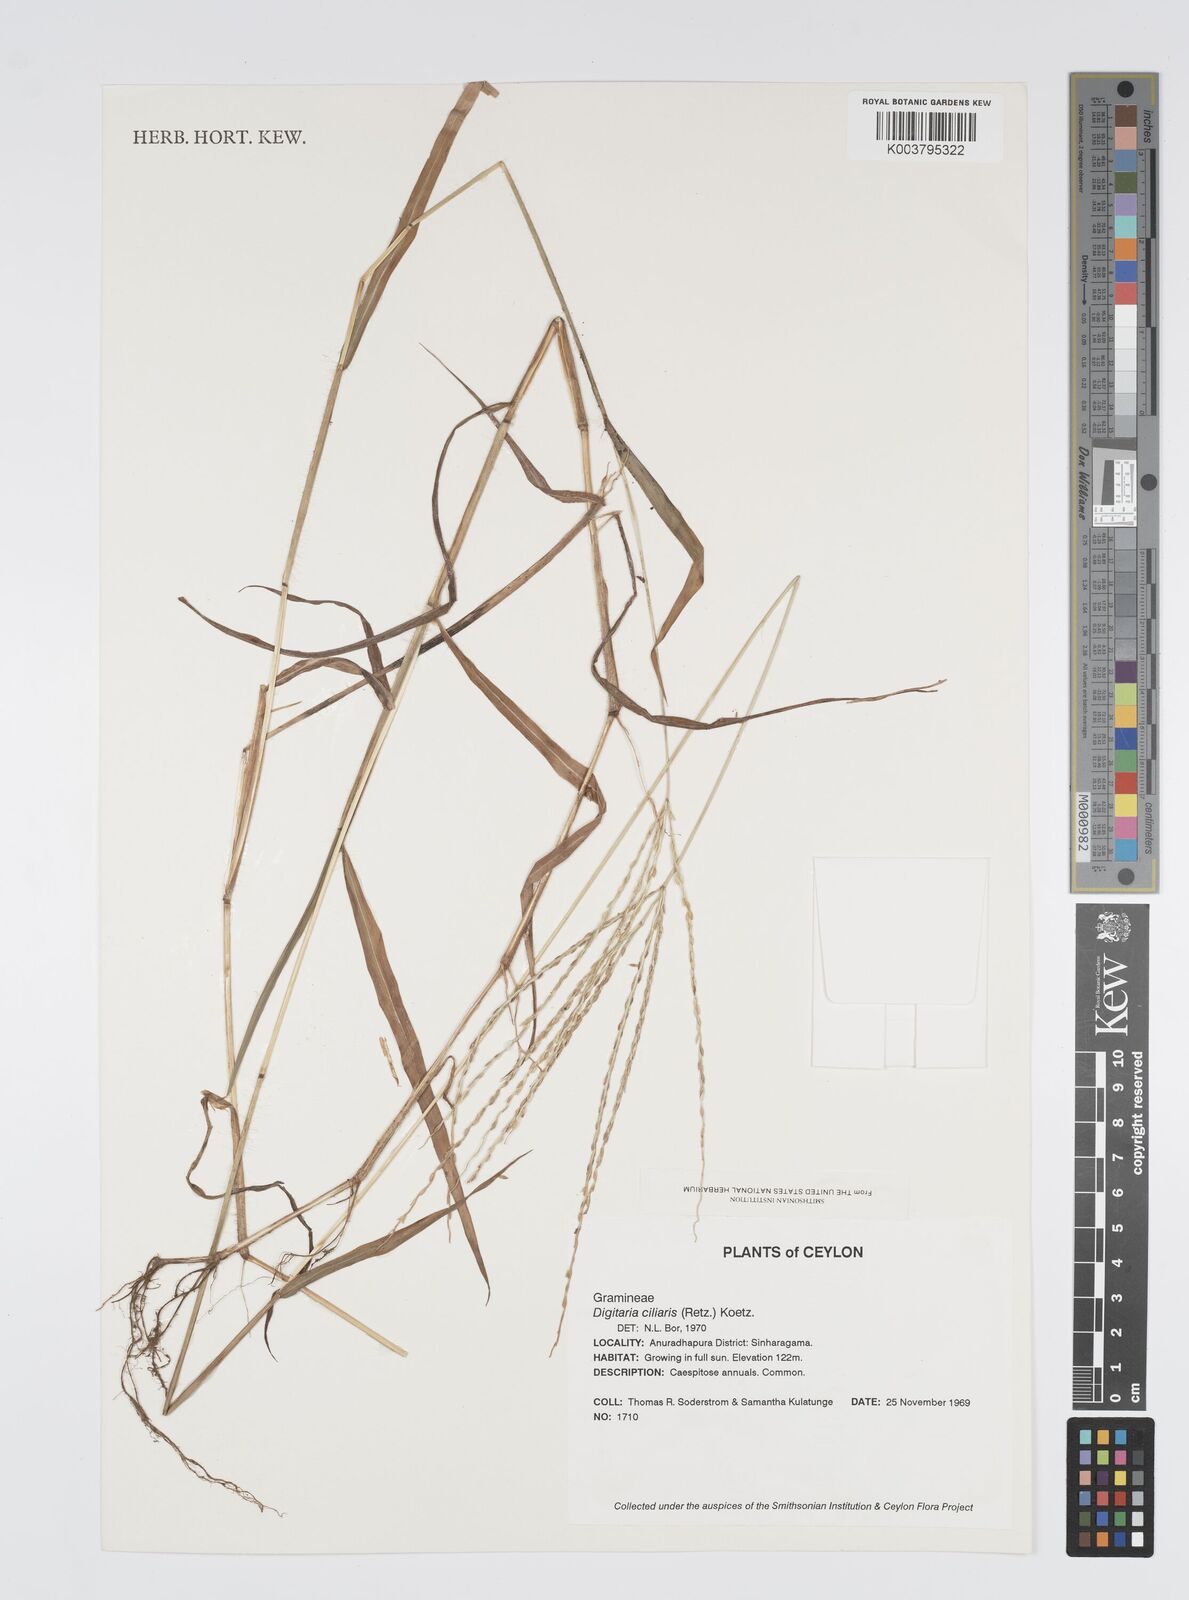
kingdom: Plantae
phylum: Tracheophyta
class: Liliopsida
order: Poales
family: Poaceae
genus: Digitaria
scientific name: Digitaria ciliaris
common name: Tropical finger-grass
